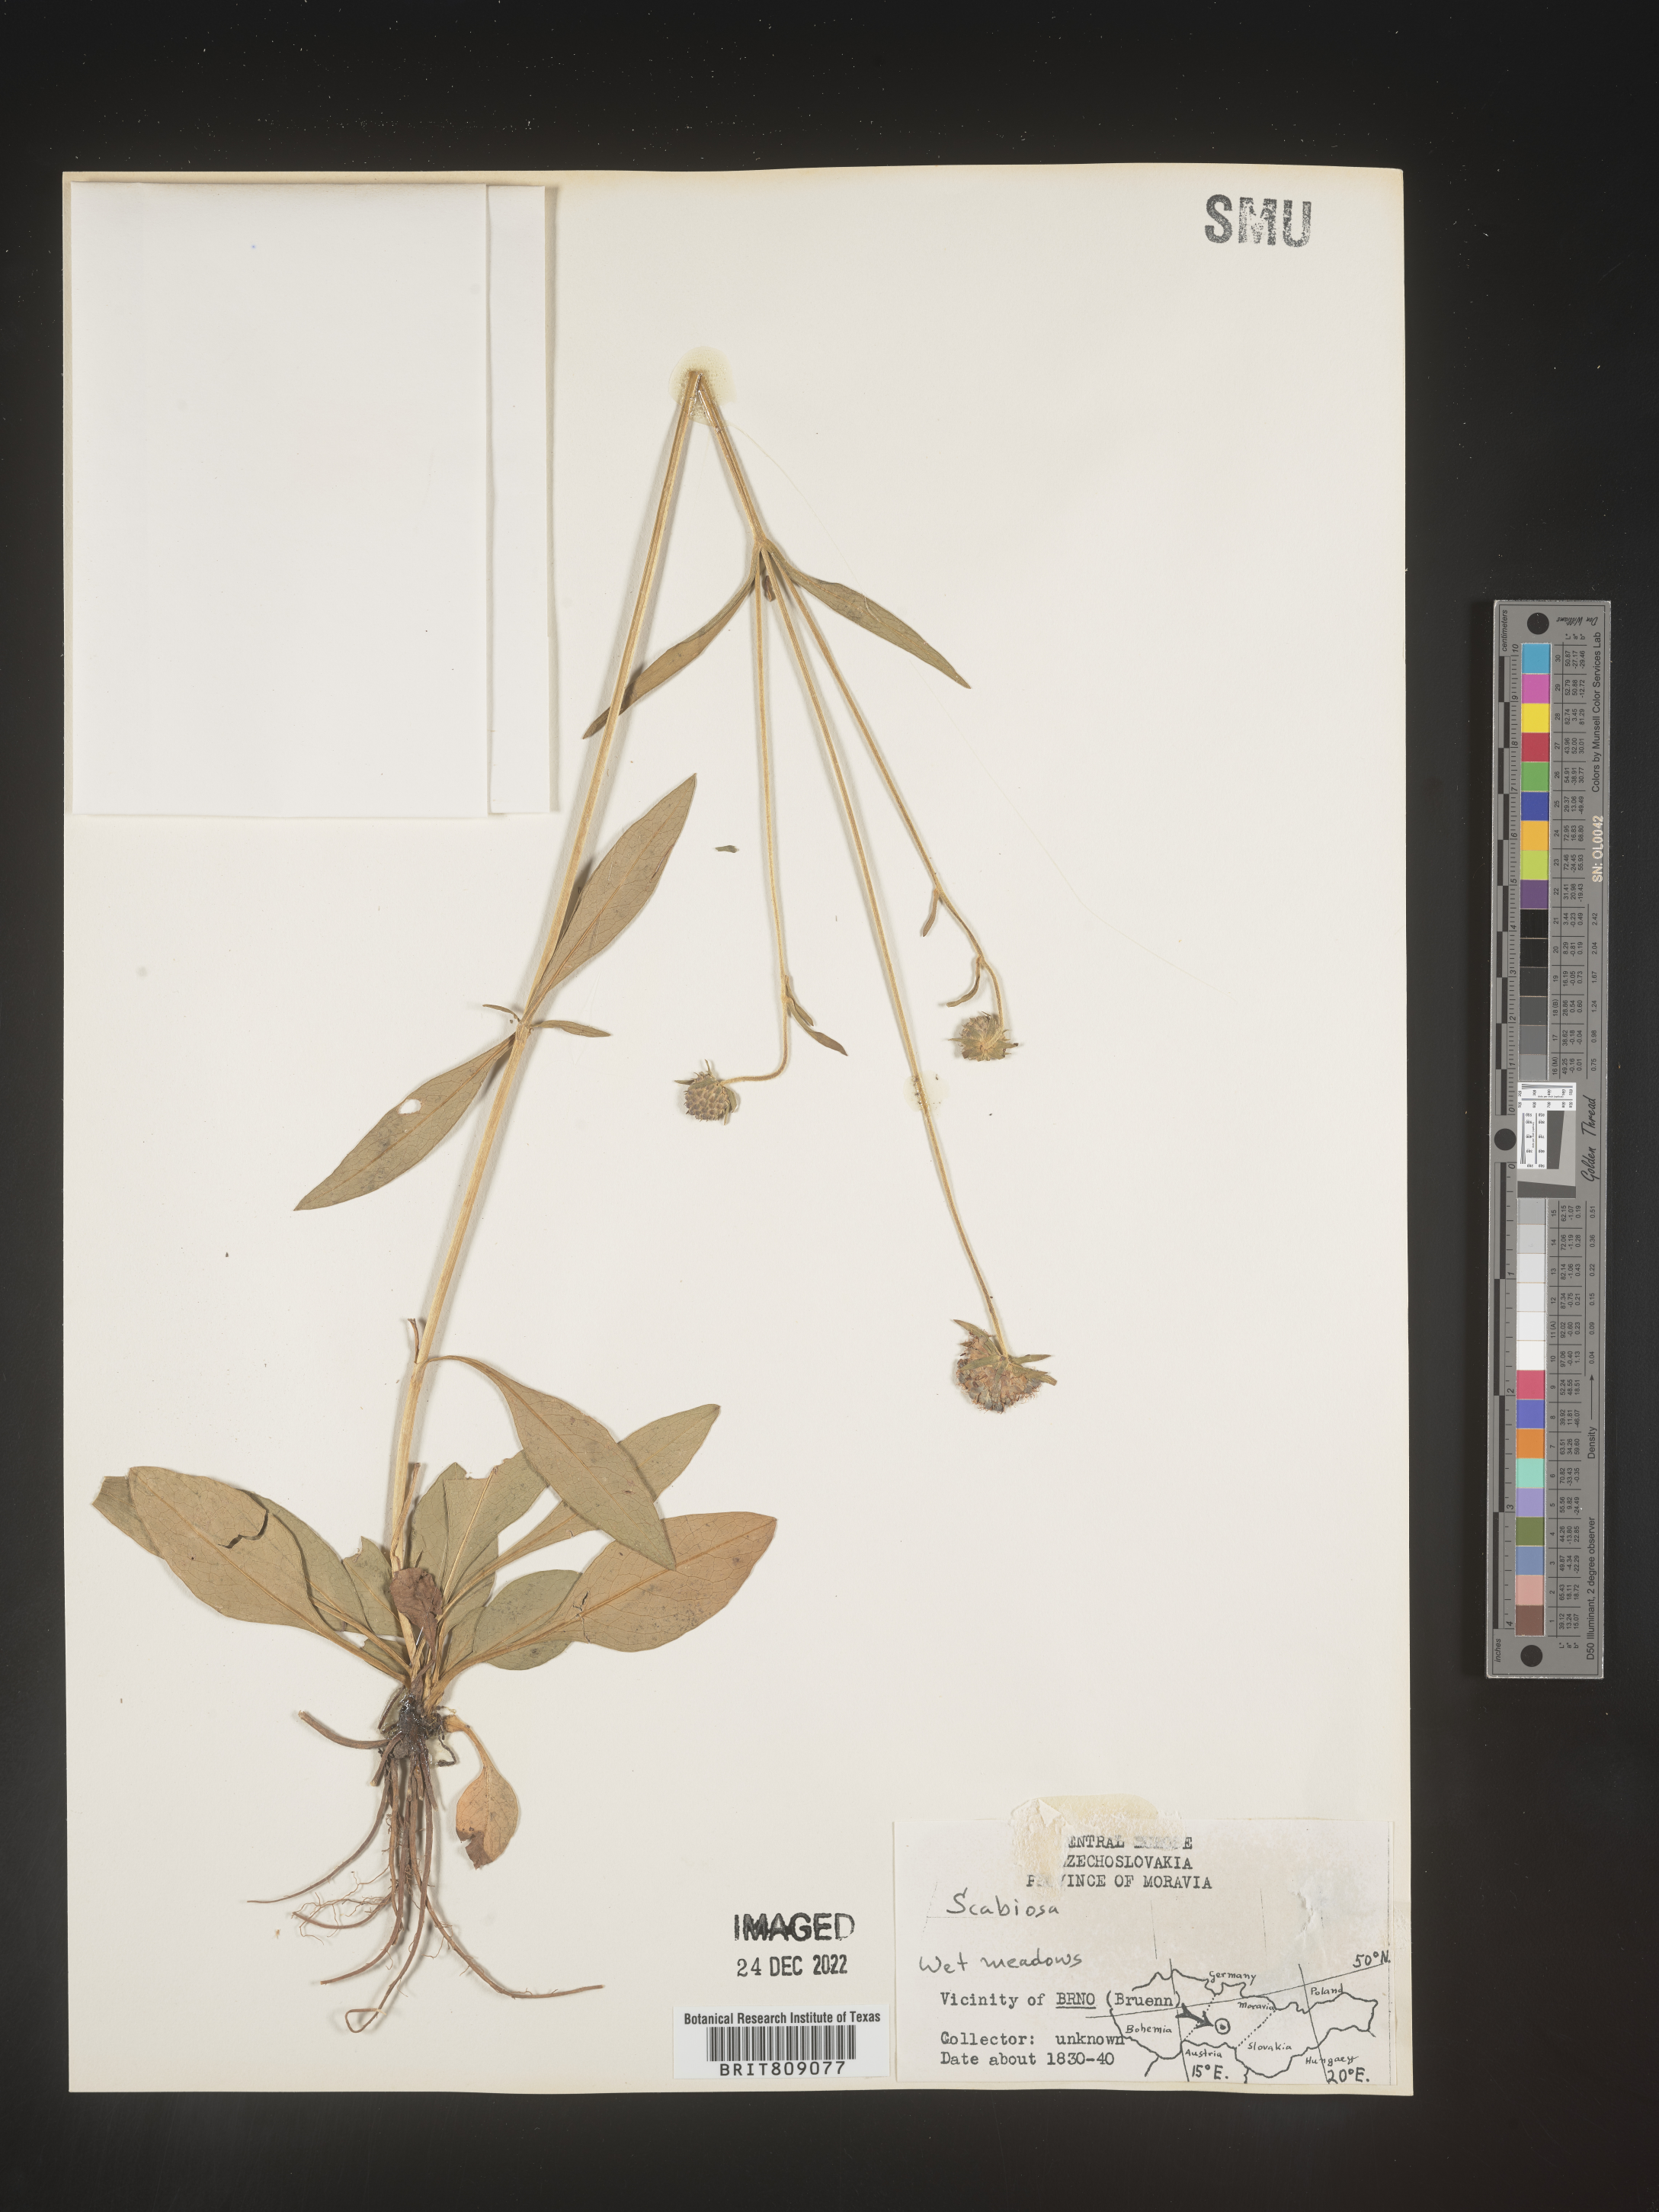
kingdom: Plantae
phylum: Tracheophyta
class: Magnoliopsida
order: Dipsacales
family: Caprifoliaceae
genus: Scabiosa
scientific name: Scabiosa
